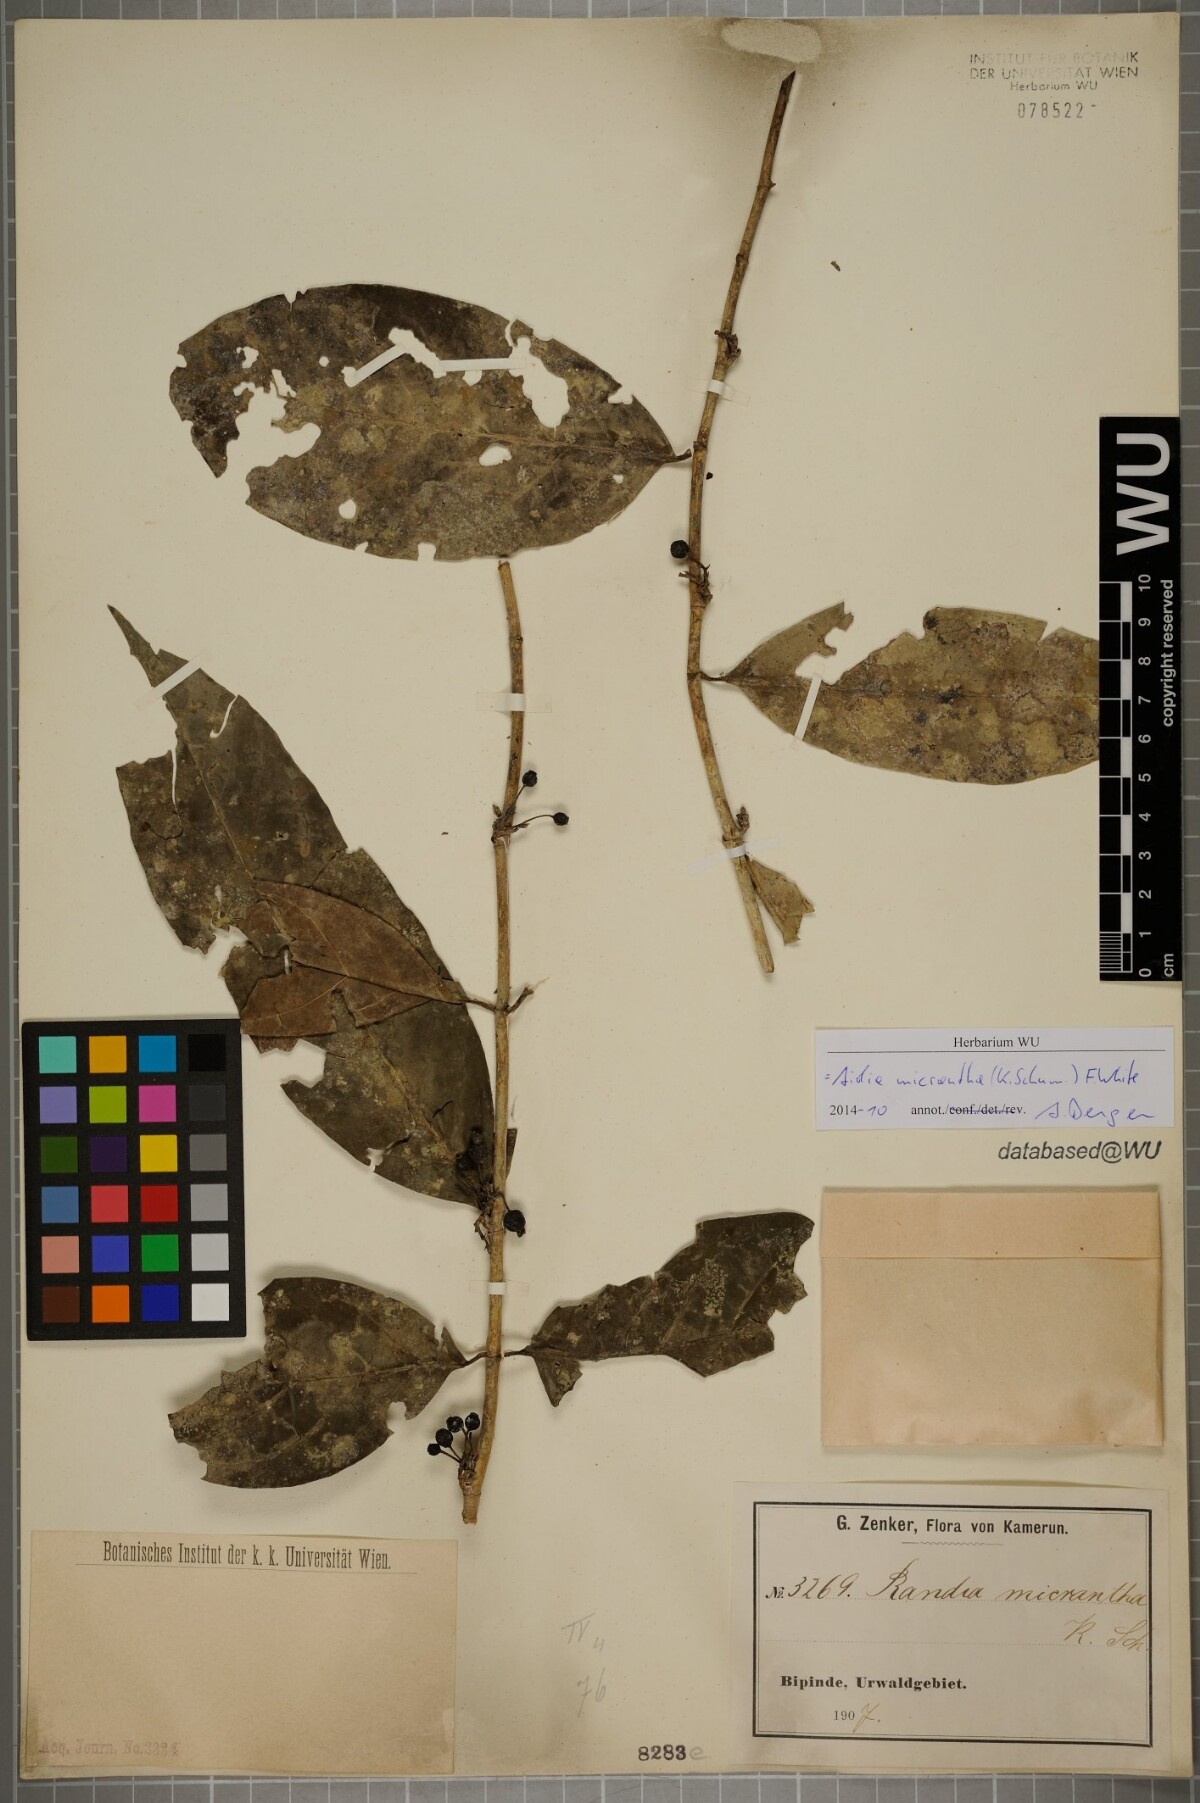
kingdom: Plantae
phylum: Tracheophyta
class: Magnoliopsida
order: Gentianales
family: Rubiaceae
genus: Aidia
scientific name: Aidia micrantha
